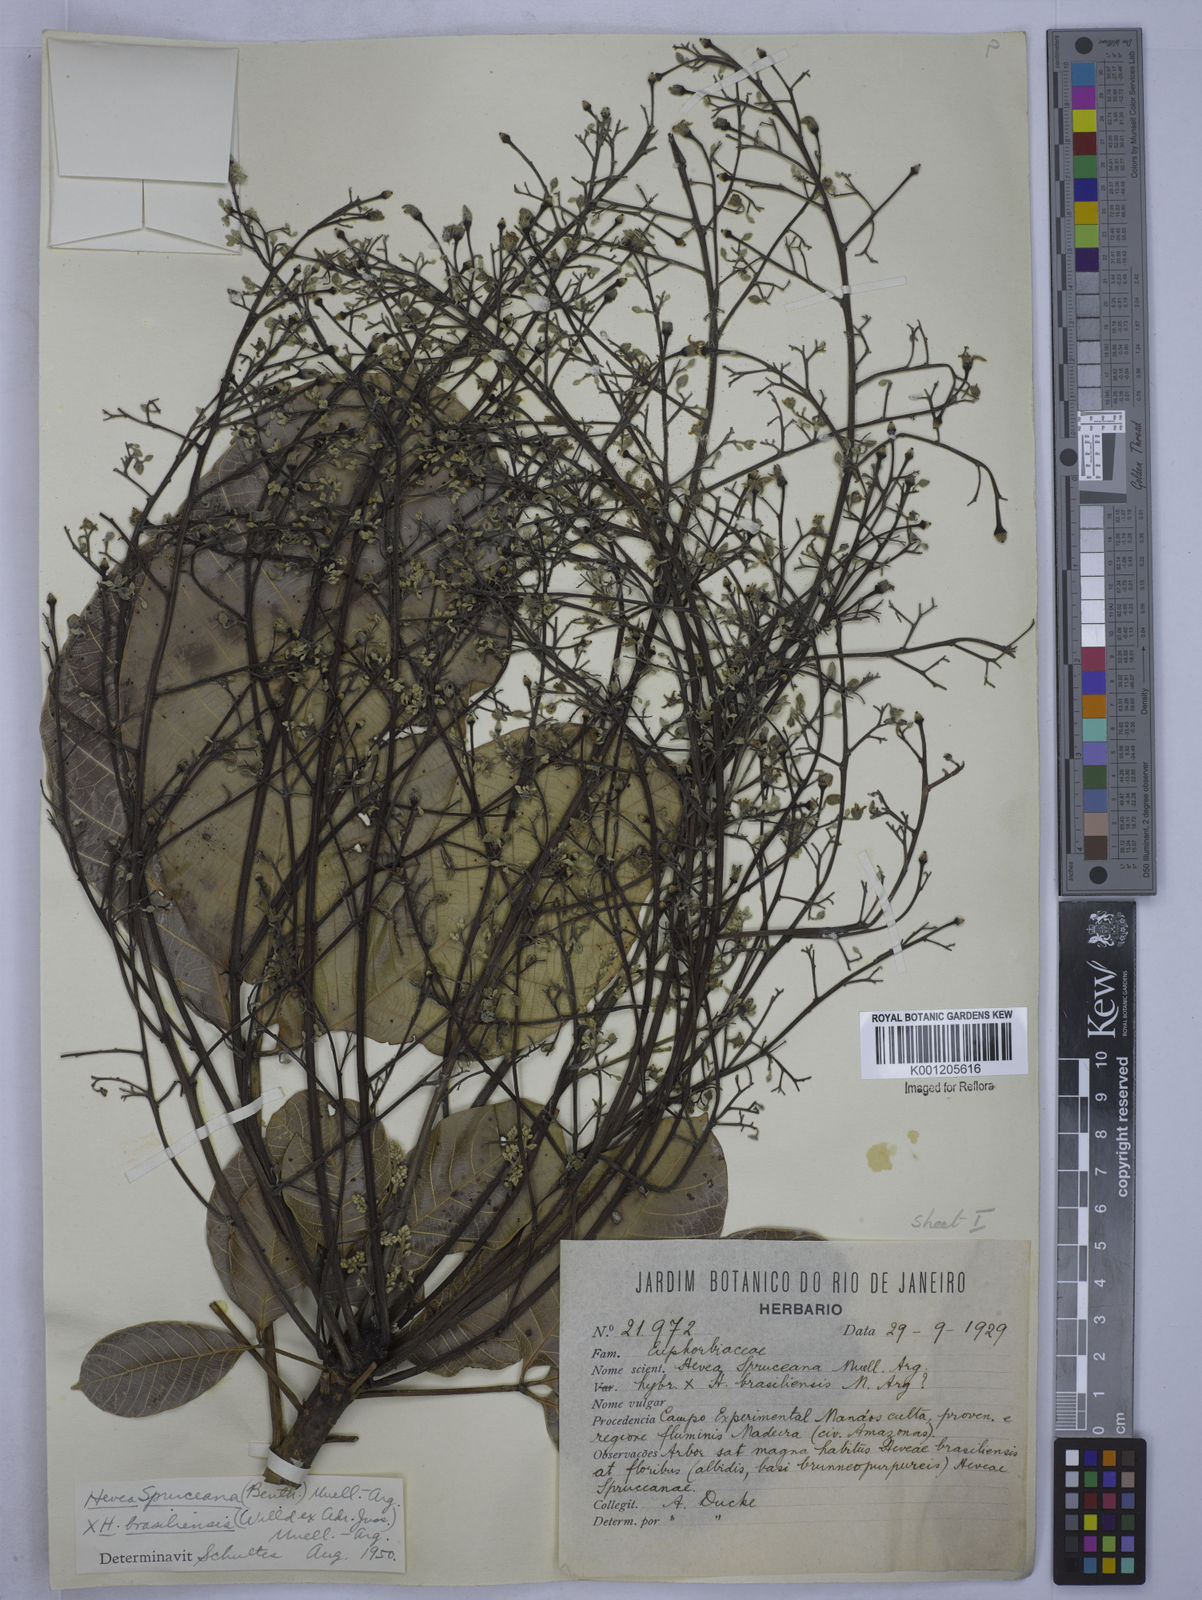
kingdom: Plantae
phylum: Tracheophyta
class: Magnoliopsida
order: Malpighiales
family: Euphorbiaceae
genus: Hevea
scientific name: Hevea
